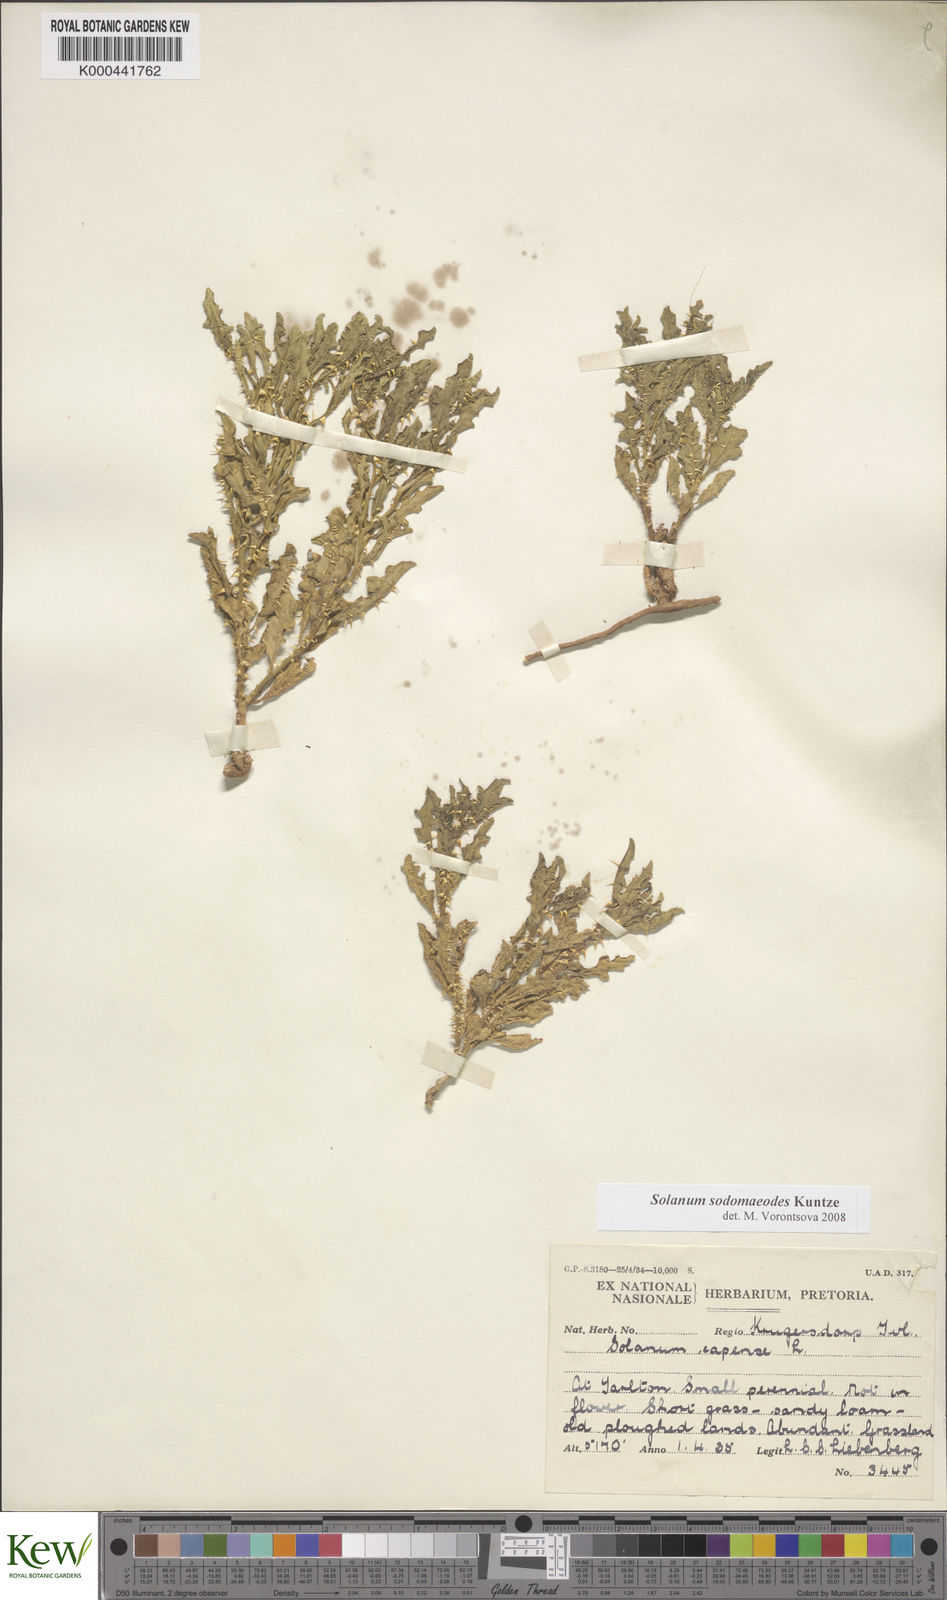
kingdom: Plantae
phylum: Tracheophyta
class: Magnoliopsida
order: Solanales
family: Solanaceae
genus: Solanum
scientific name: Solanum
